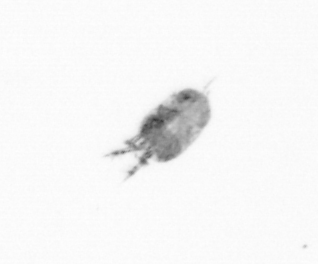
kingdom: Animalia
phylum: Arthropoda
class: Copepoda
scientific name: Copepoda
